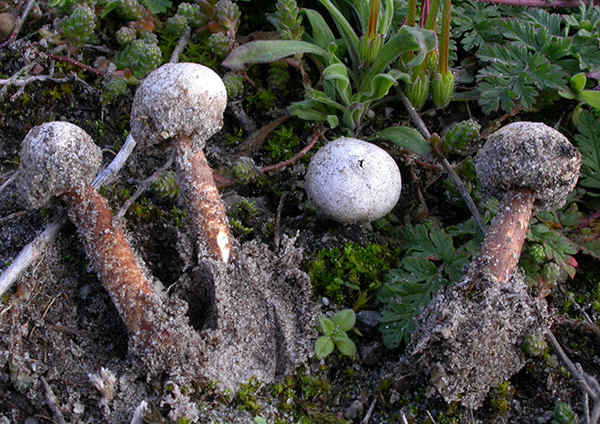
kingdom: Fungi
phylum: Basidiomycota
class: Agaricomycetes
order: Agaricales
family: Agaricaceae
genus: Tulostoma
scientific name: Tulostoma fimbriatum
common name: frynset stilkbovist
